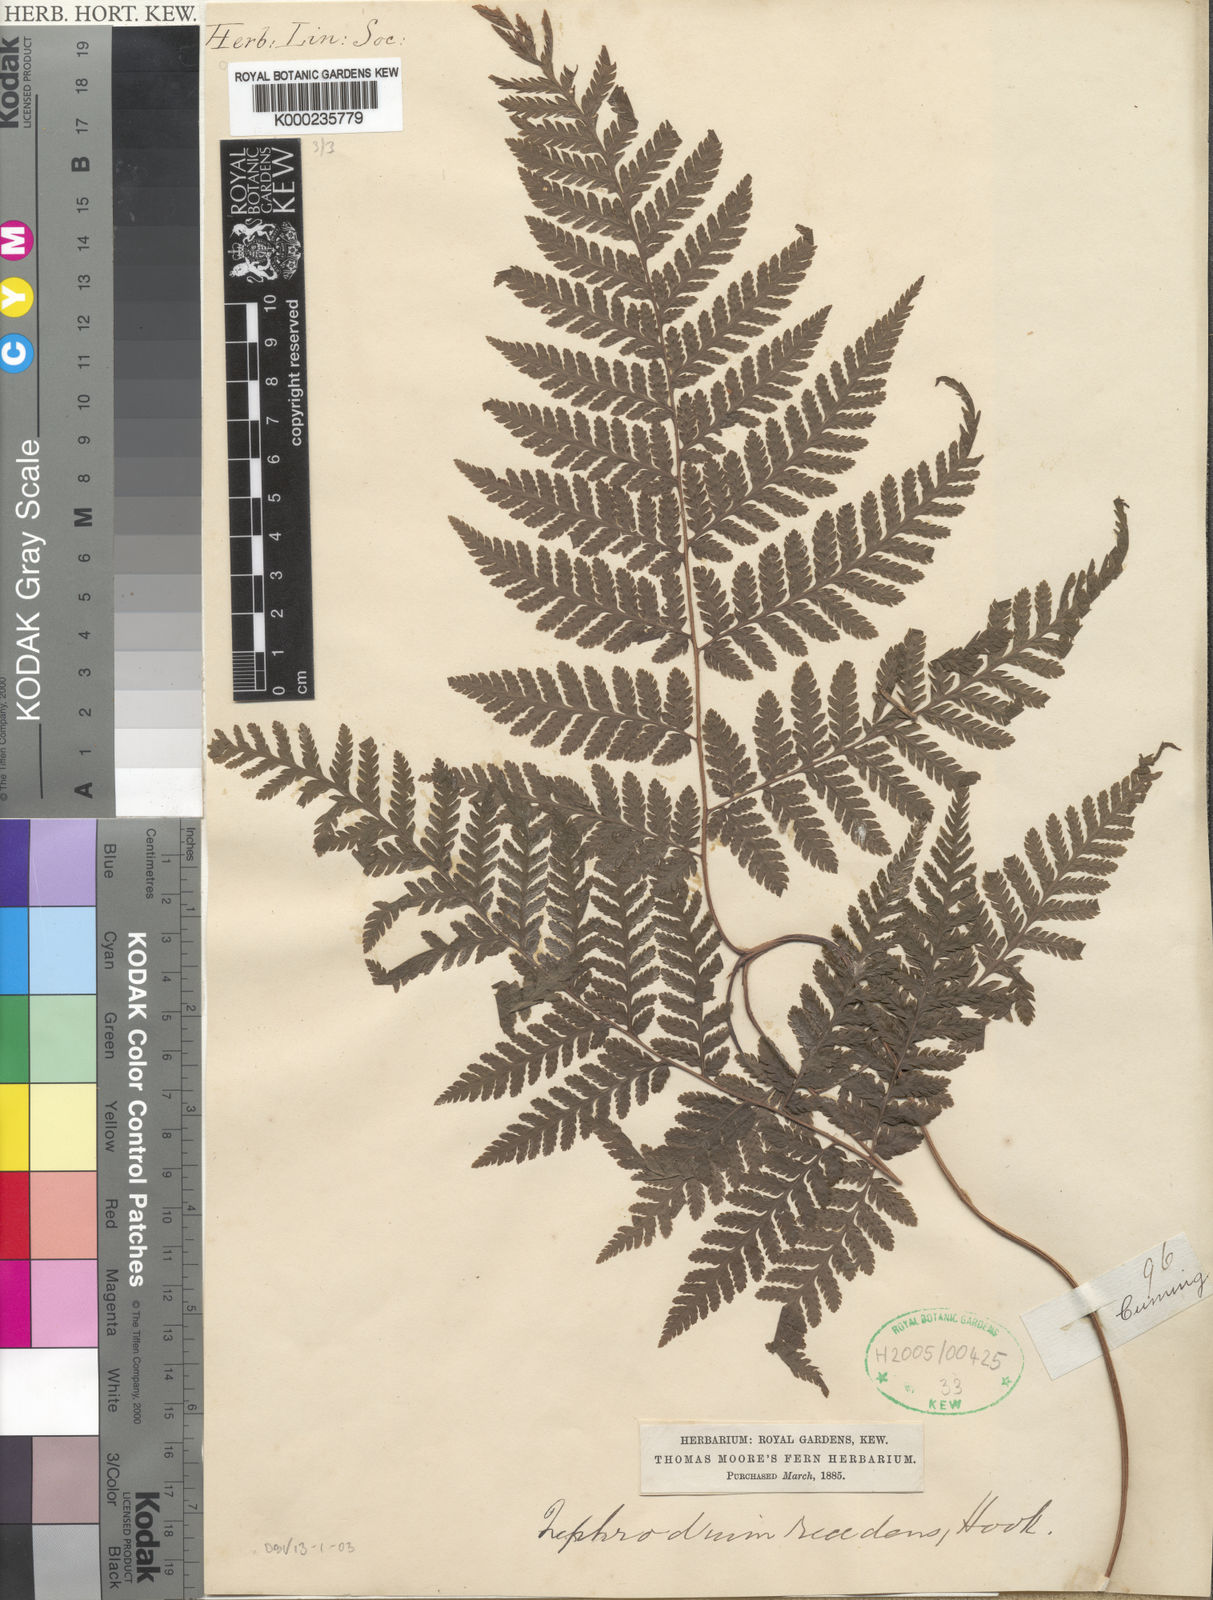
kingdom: Plantae
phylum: Tracheophyta
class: Polypodiopsida
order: Polypodiales
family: Dryopteridaceae
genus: Lastreopsis
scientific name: Lastreopsis tenera
